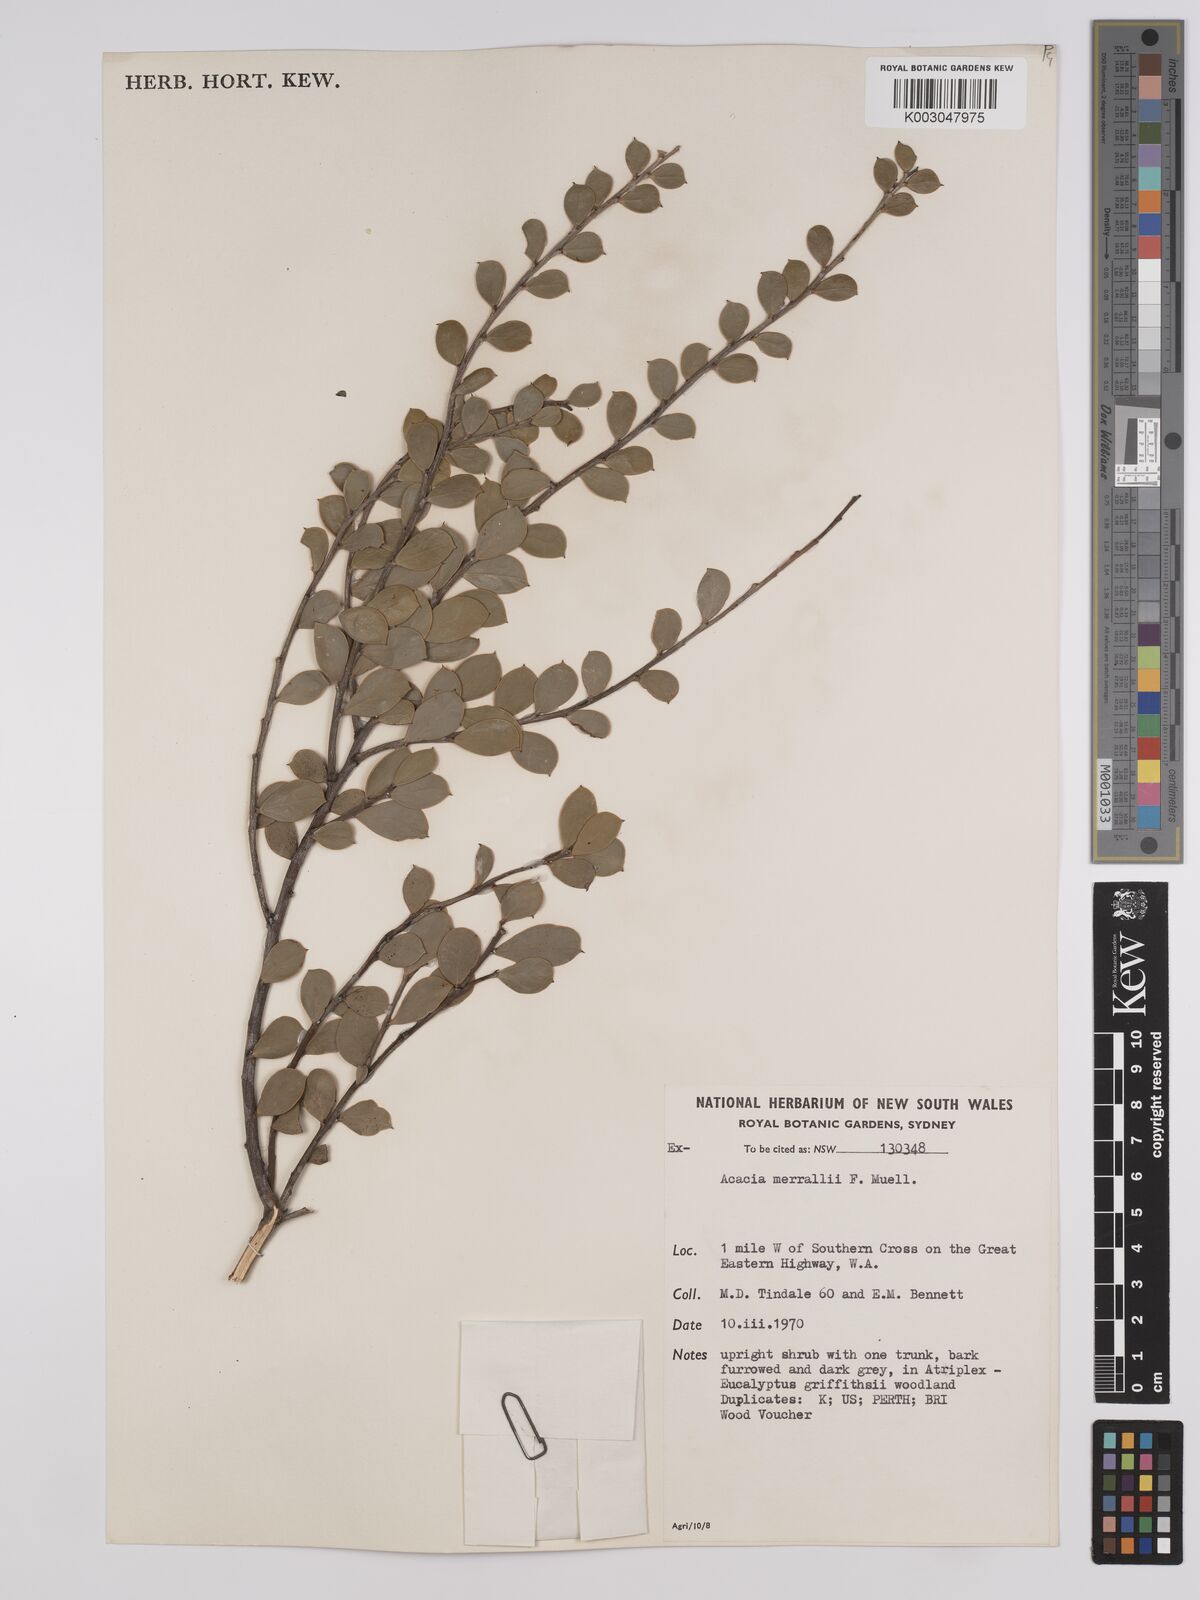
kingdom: Plantae
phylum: Tracheophyta
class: Magnoliopsida
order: Fabales
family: Fabaceae
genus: Acacia
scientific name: Acacia sericocarpa
